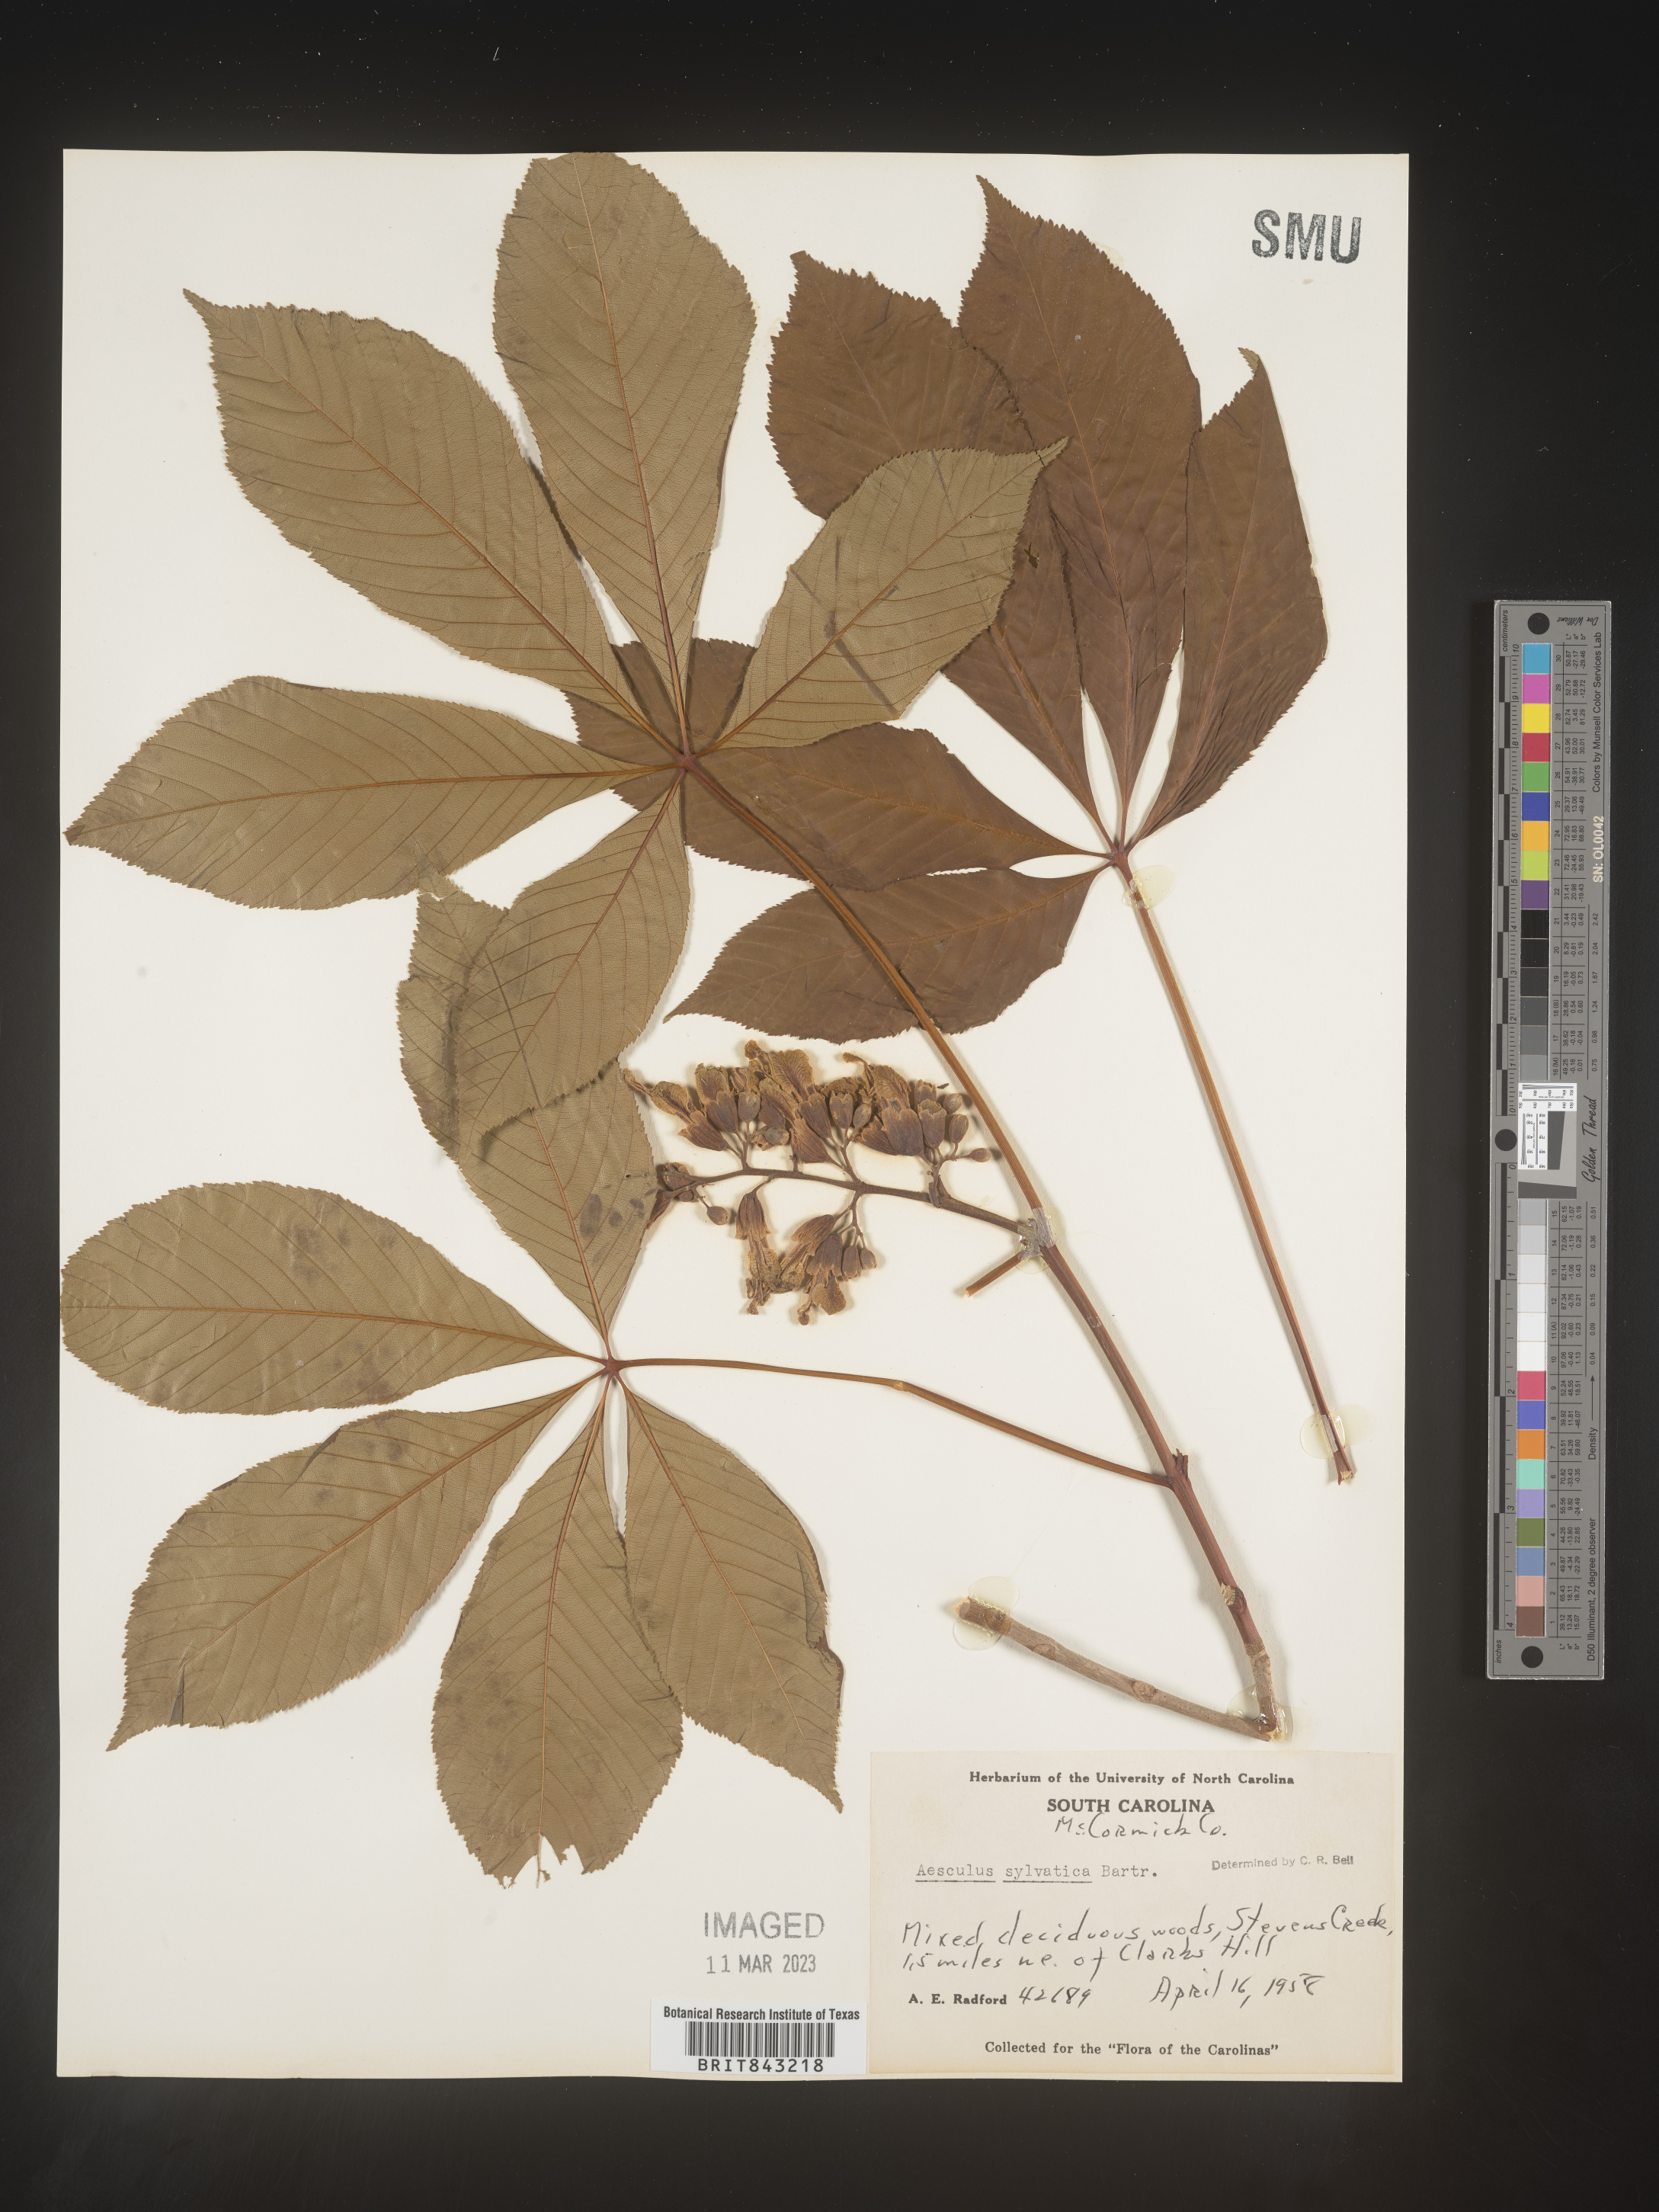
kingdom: Plantae
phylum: Tracheophyta
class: Magnoliopsida
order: Sapindales
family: Sapindaceae
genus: Aesculus
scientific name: Aesculus
